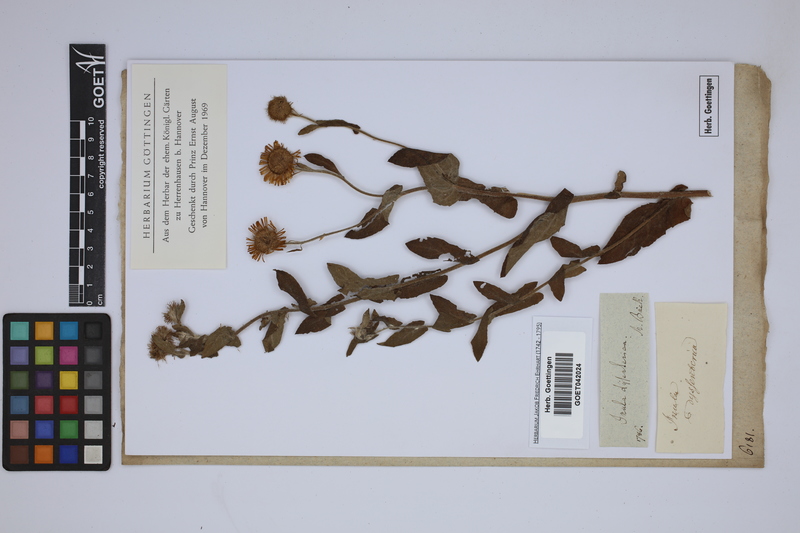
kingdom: Plantae
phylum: Tracheophyta
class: Magnoliopsida
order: Asterales
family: Asteraceae
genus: Pulicaria
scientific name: Pulicaria dysenterica
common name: Common fleabane
